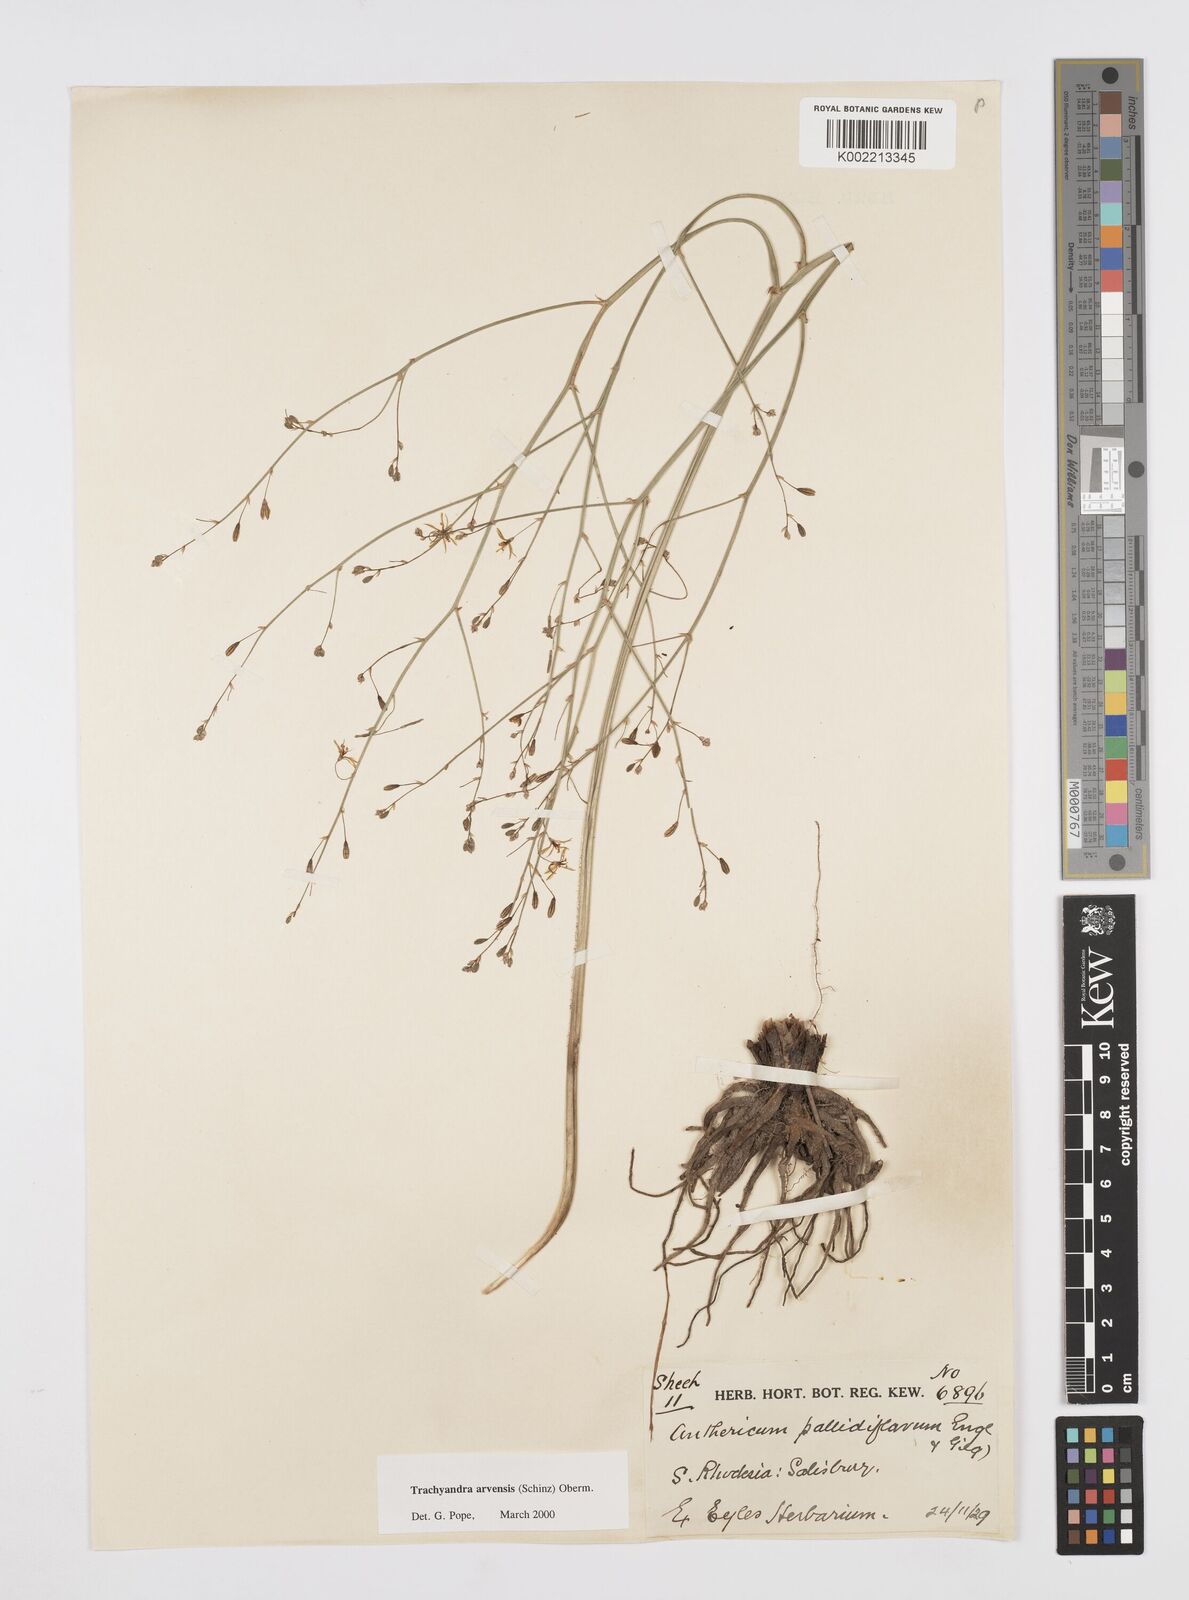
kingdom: Plantae
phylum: Tracheophyta
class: Liliopsida
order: Asparagales
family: Asphodelaceae
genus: Trachyandra
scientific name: Trachyandra arvensis
